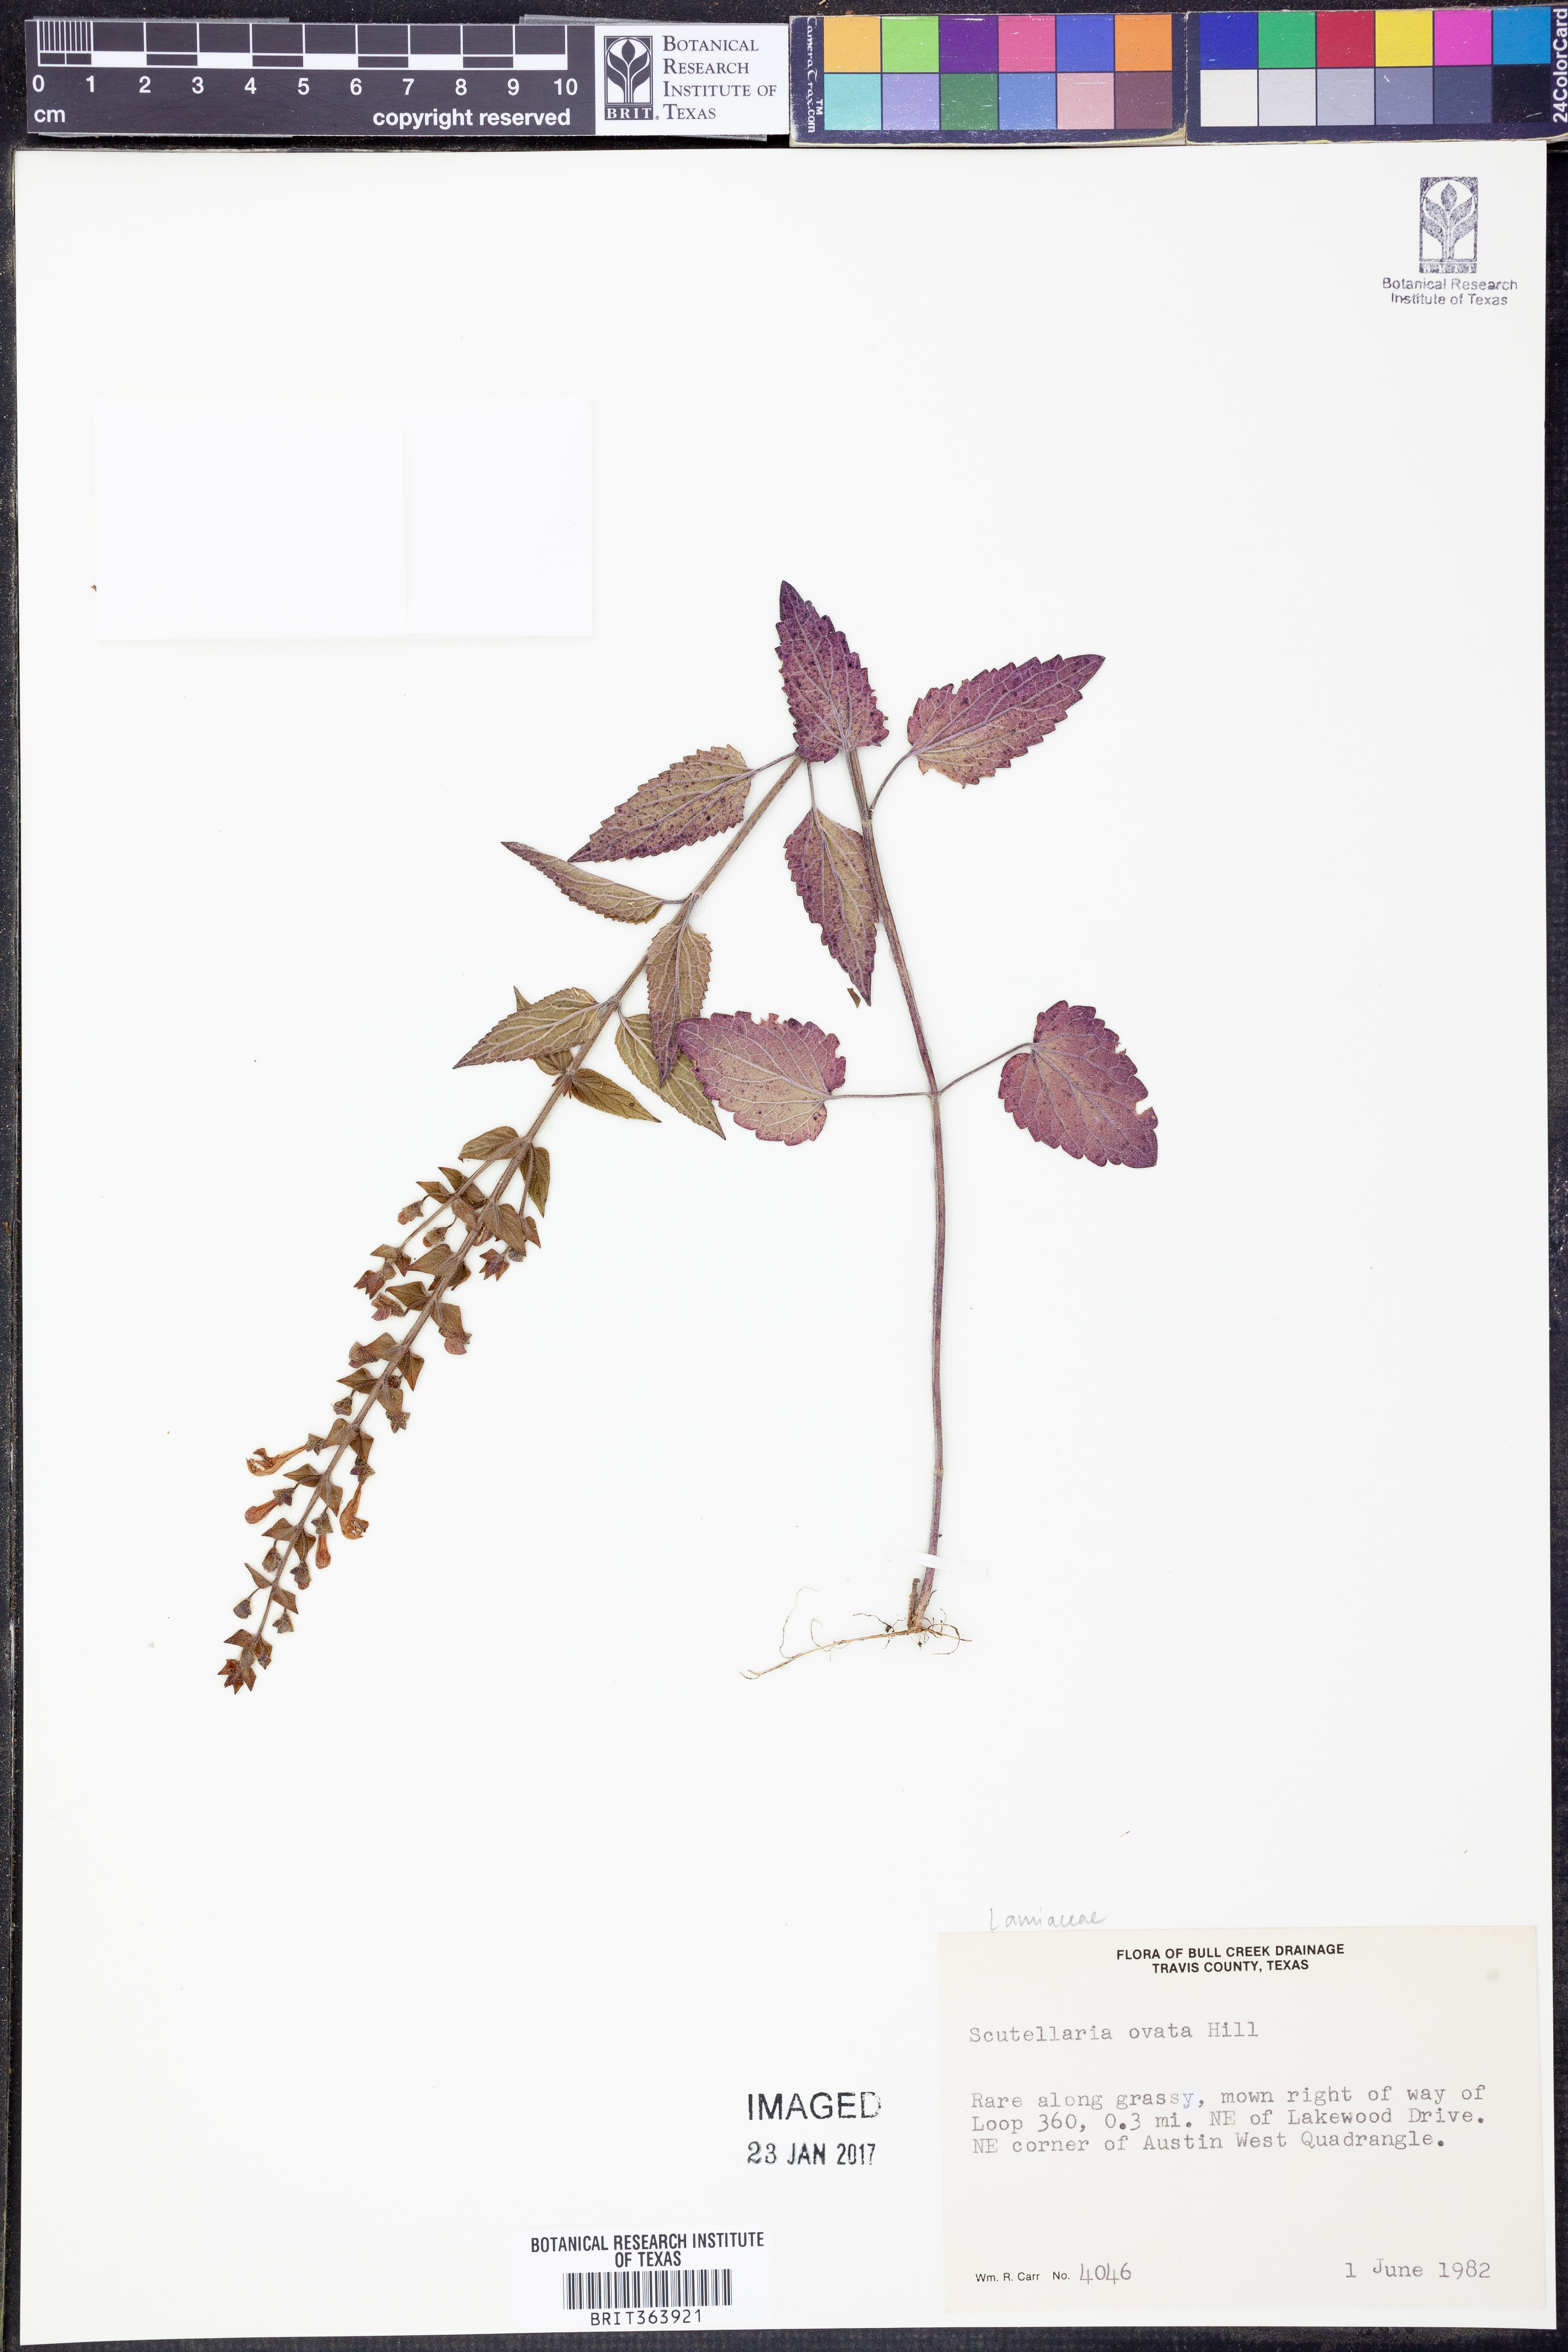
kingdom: Plantae
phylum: Tracheophyta
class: Magnoliopsida
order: Lamiales
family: Lamiaceae
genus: Scutellaria
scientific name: Scutellaria ovata
